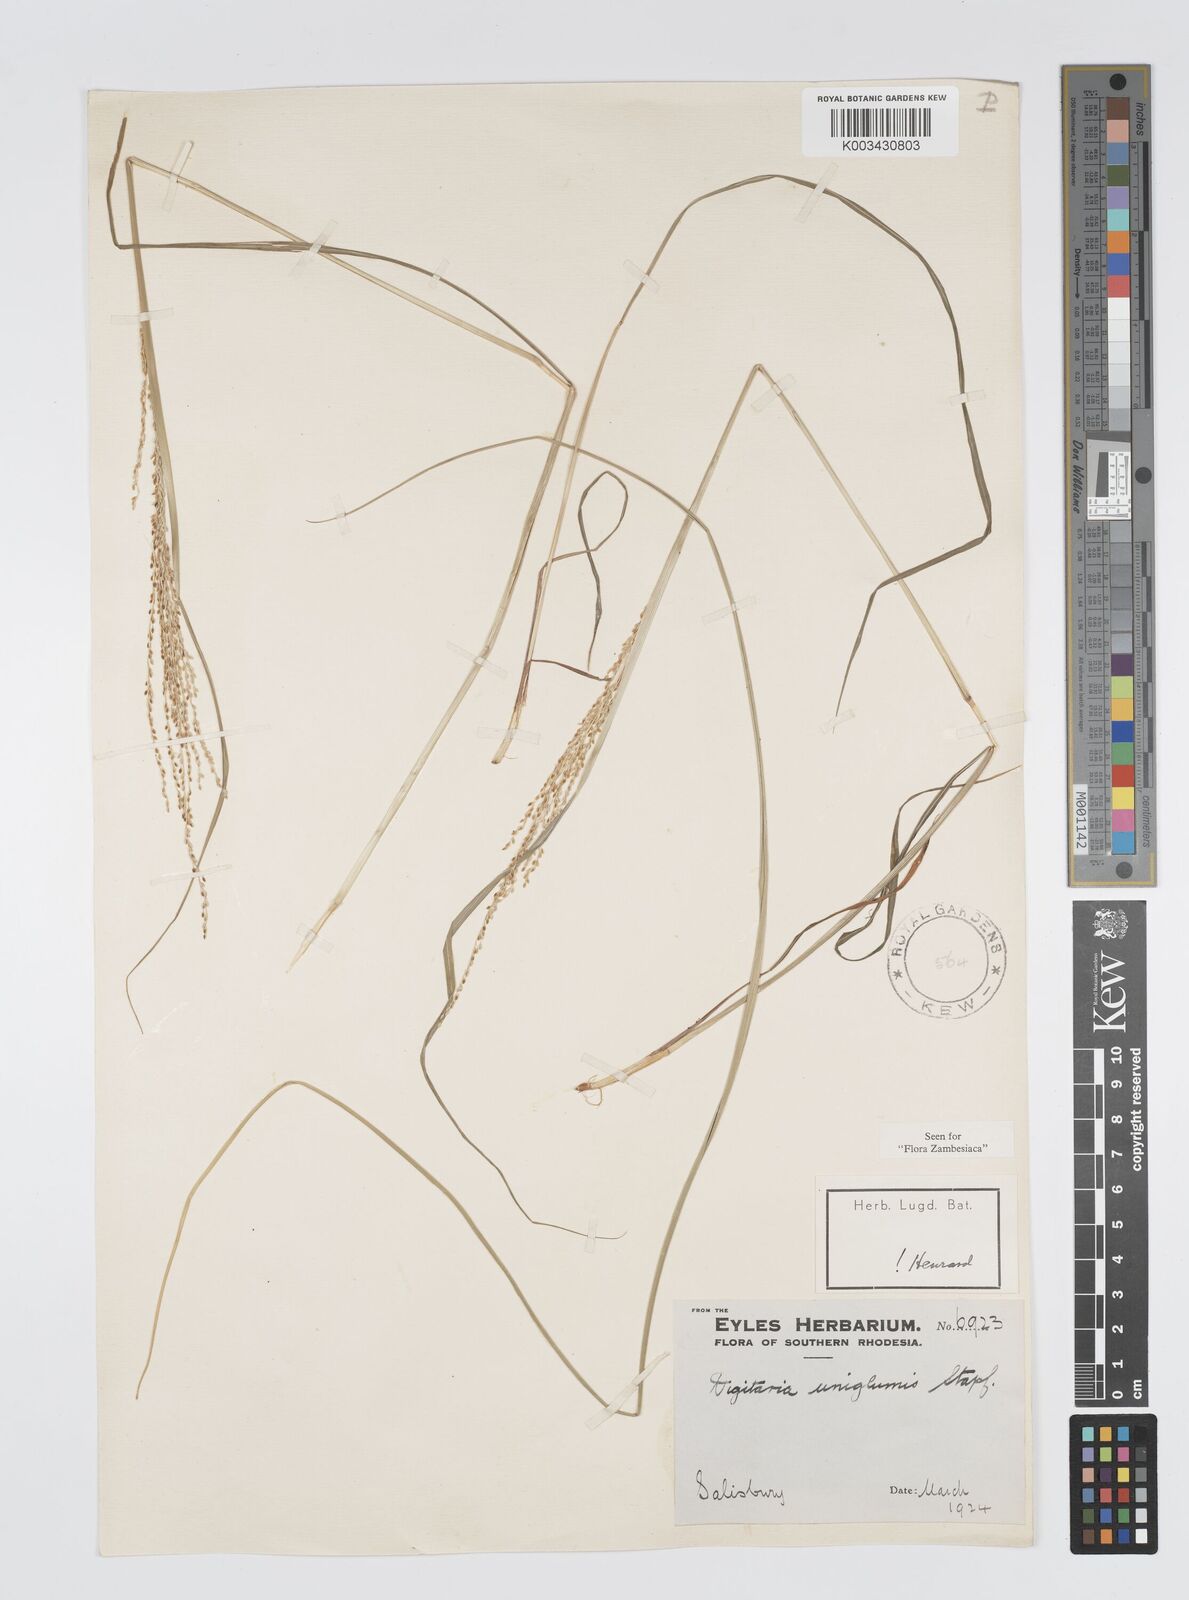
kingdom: Plantae
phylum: Tracheophyta
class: Liliopsida
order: Poales
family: Poaceae
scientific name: Poaceae
